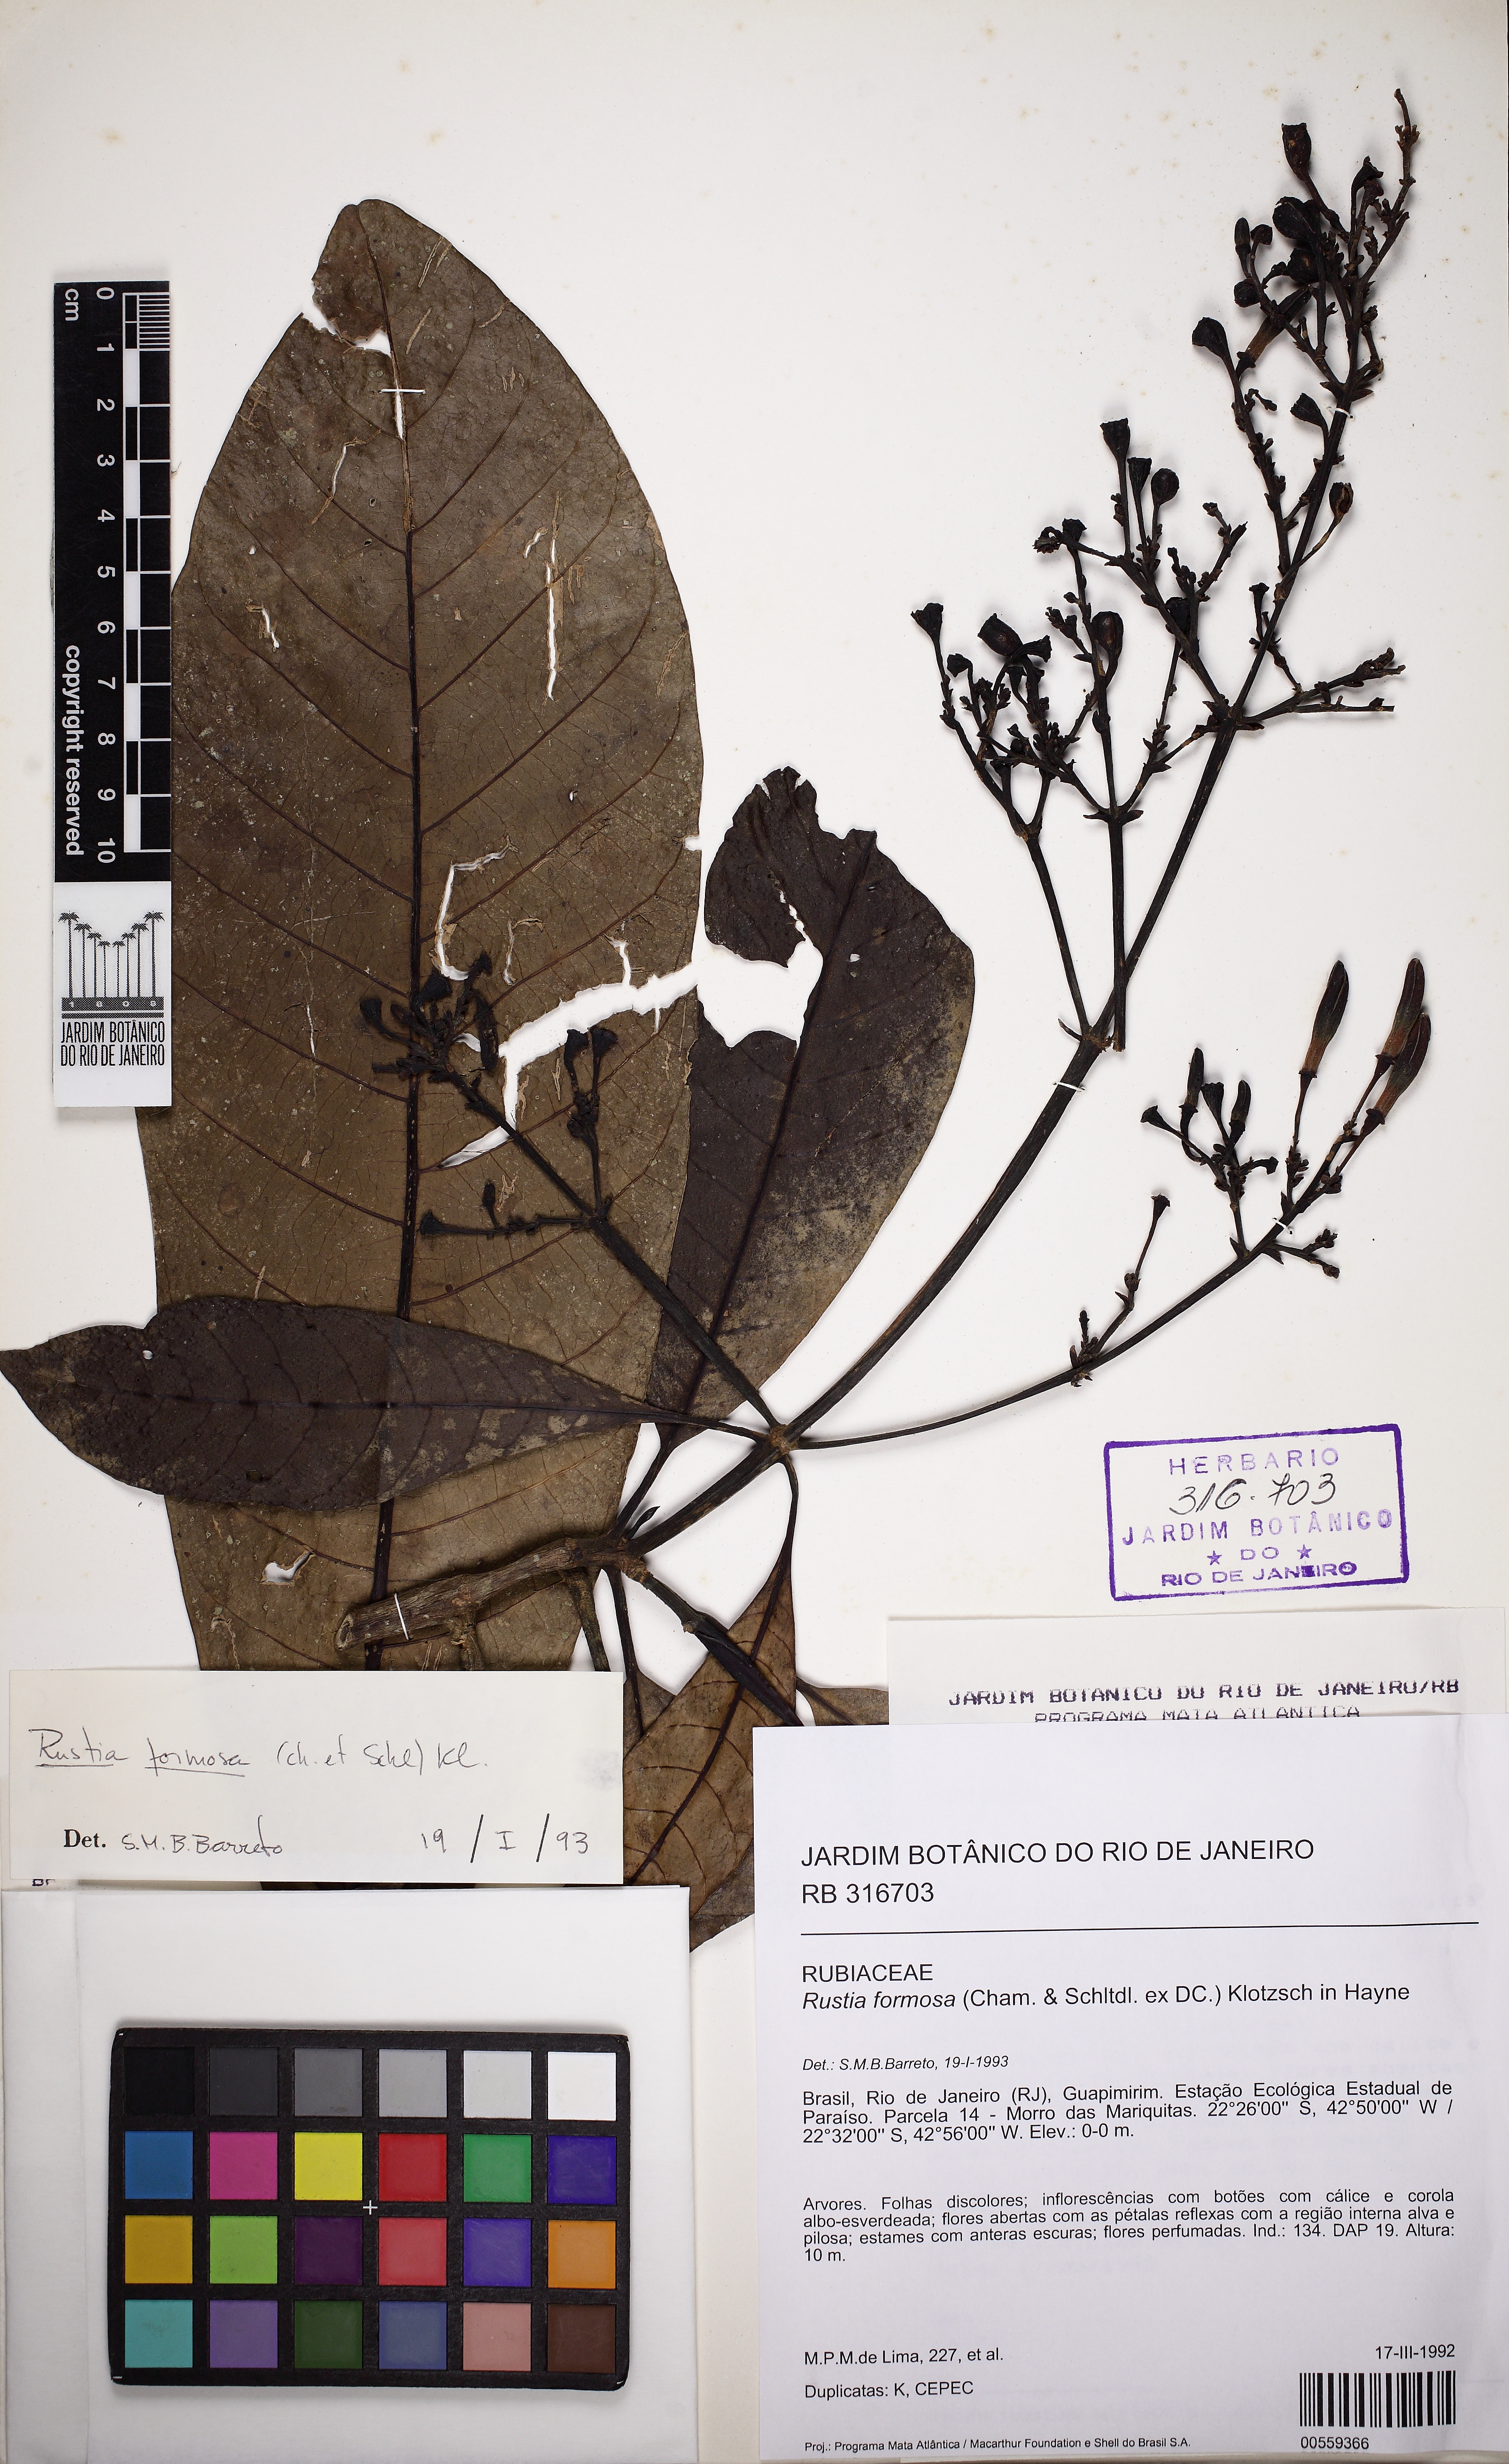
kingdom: Plantae
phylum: Tracheophyta
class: Magnoliopsida
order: Gentianales
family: Rubiaceae
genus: Rustia
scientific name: Rustia formosa
